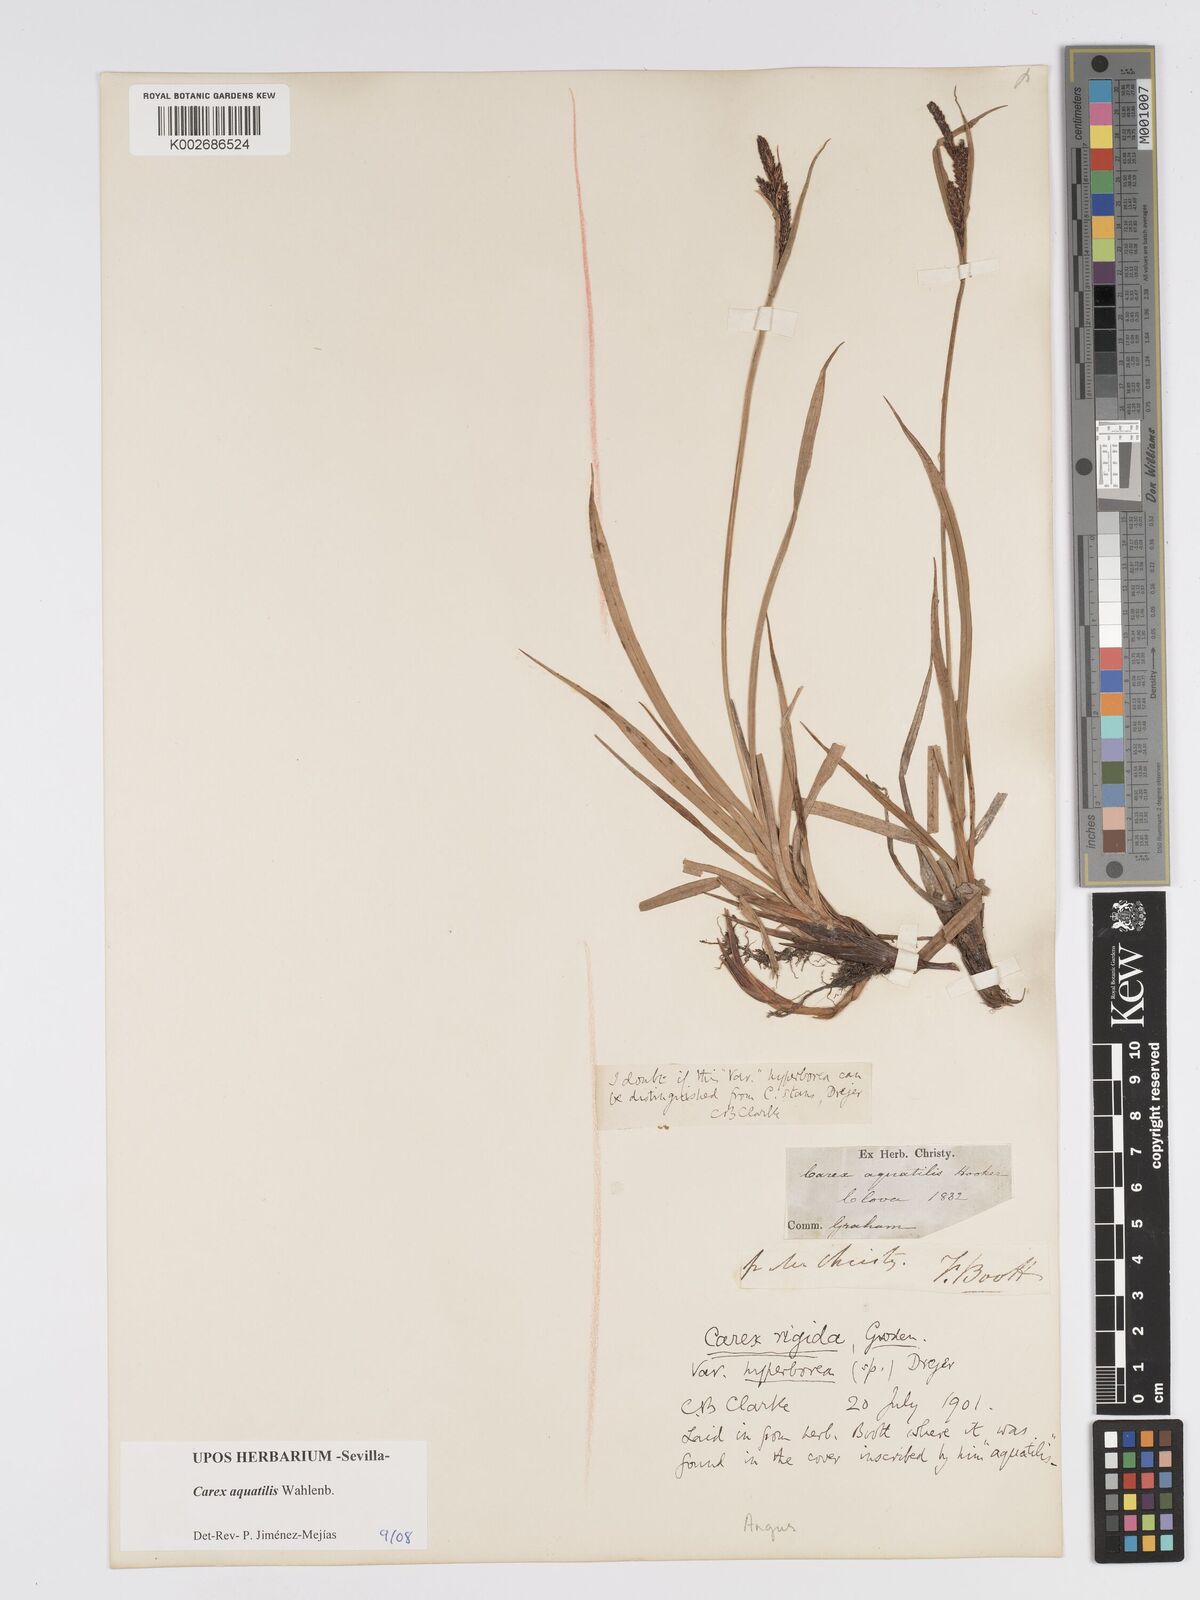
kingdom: Plantae
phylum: Tracheophyta
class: Liliopsida
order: Poales
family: Cyperaceae
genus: Carex
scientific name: Carex aquatilis
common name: Water sedge
